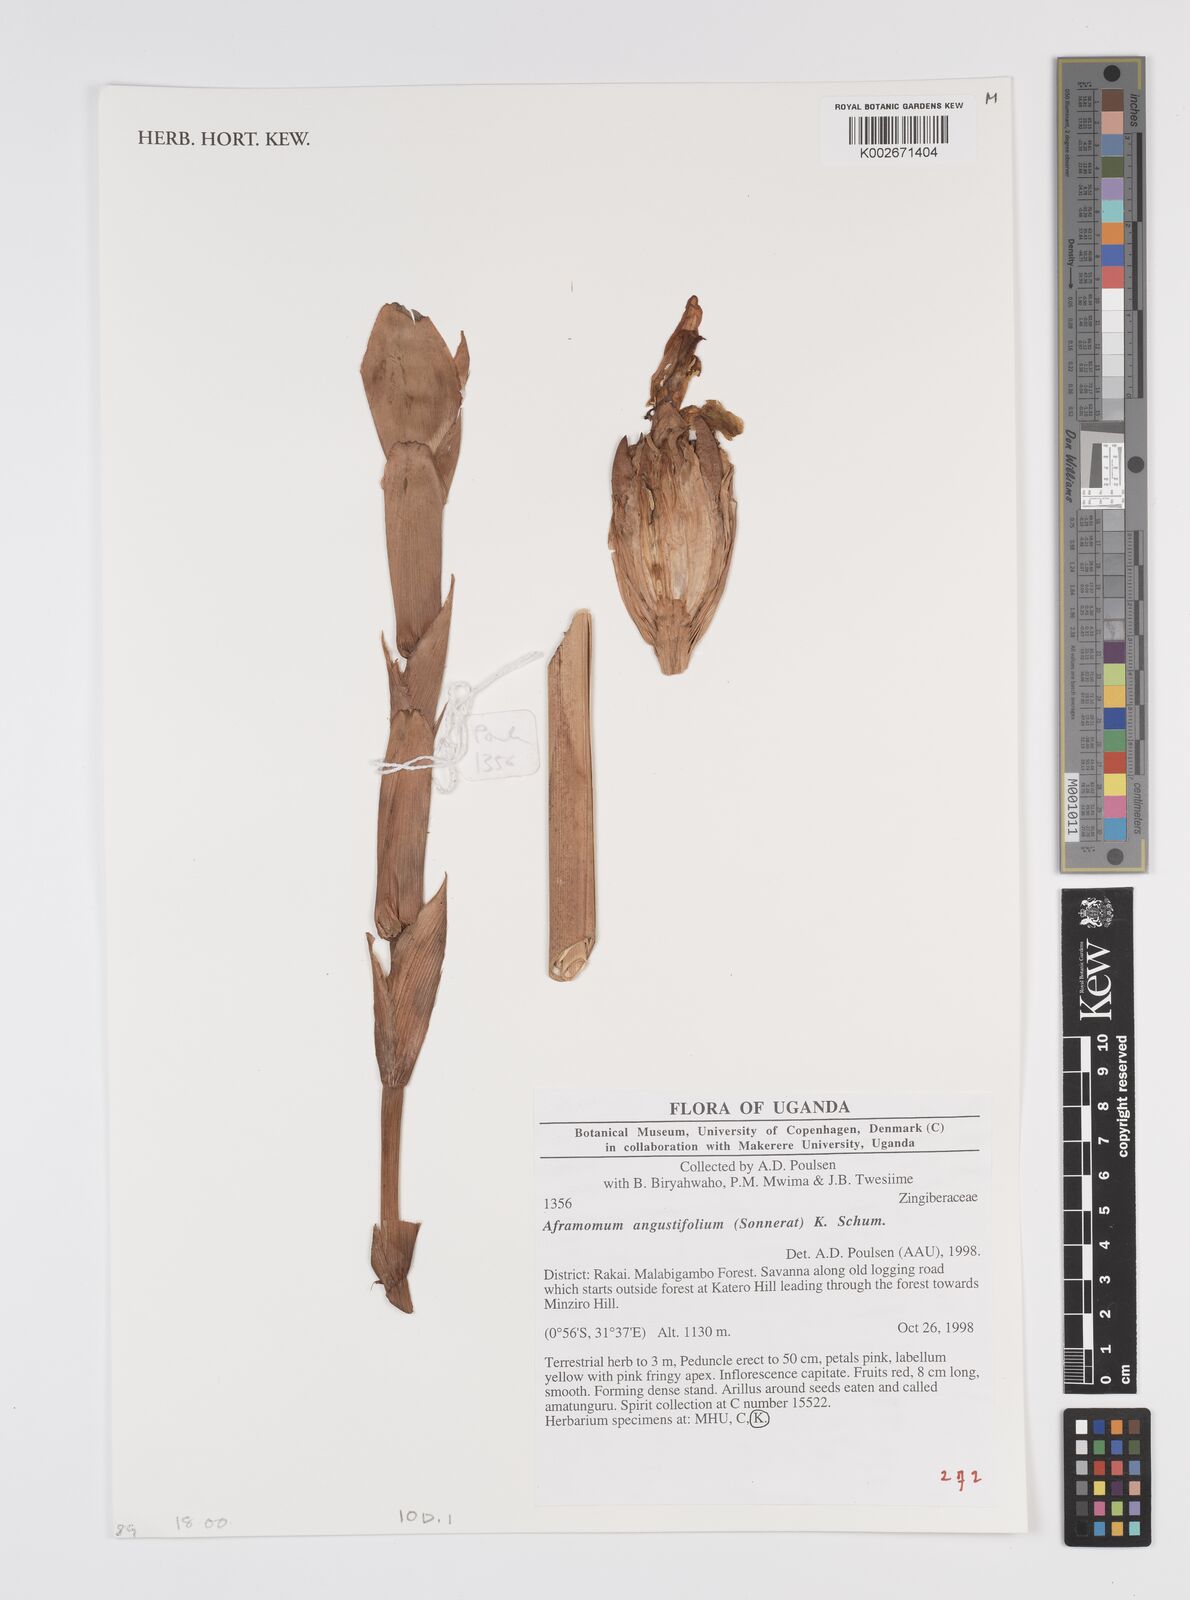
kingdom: Plantae
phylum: Tracheophyta
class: Liliopsida
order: Zingiberales
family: Zingiberaceae
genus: Aframomum
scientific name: Aframomum angustifolium
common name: Guinea grains
